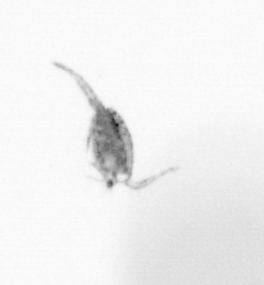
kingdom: Animalia
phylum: Arthropoda
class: Copepoda
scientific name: Copepoda
